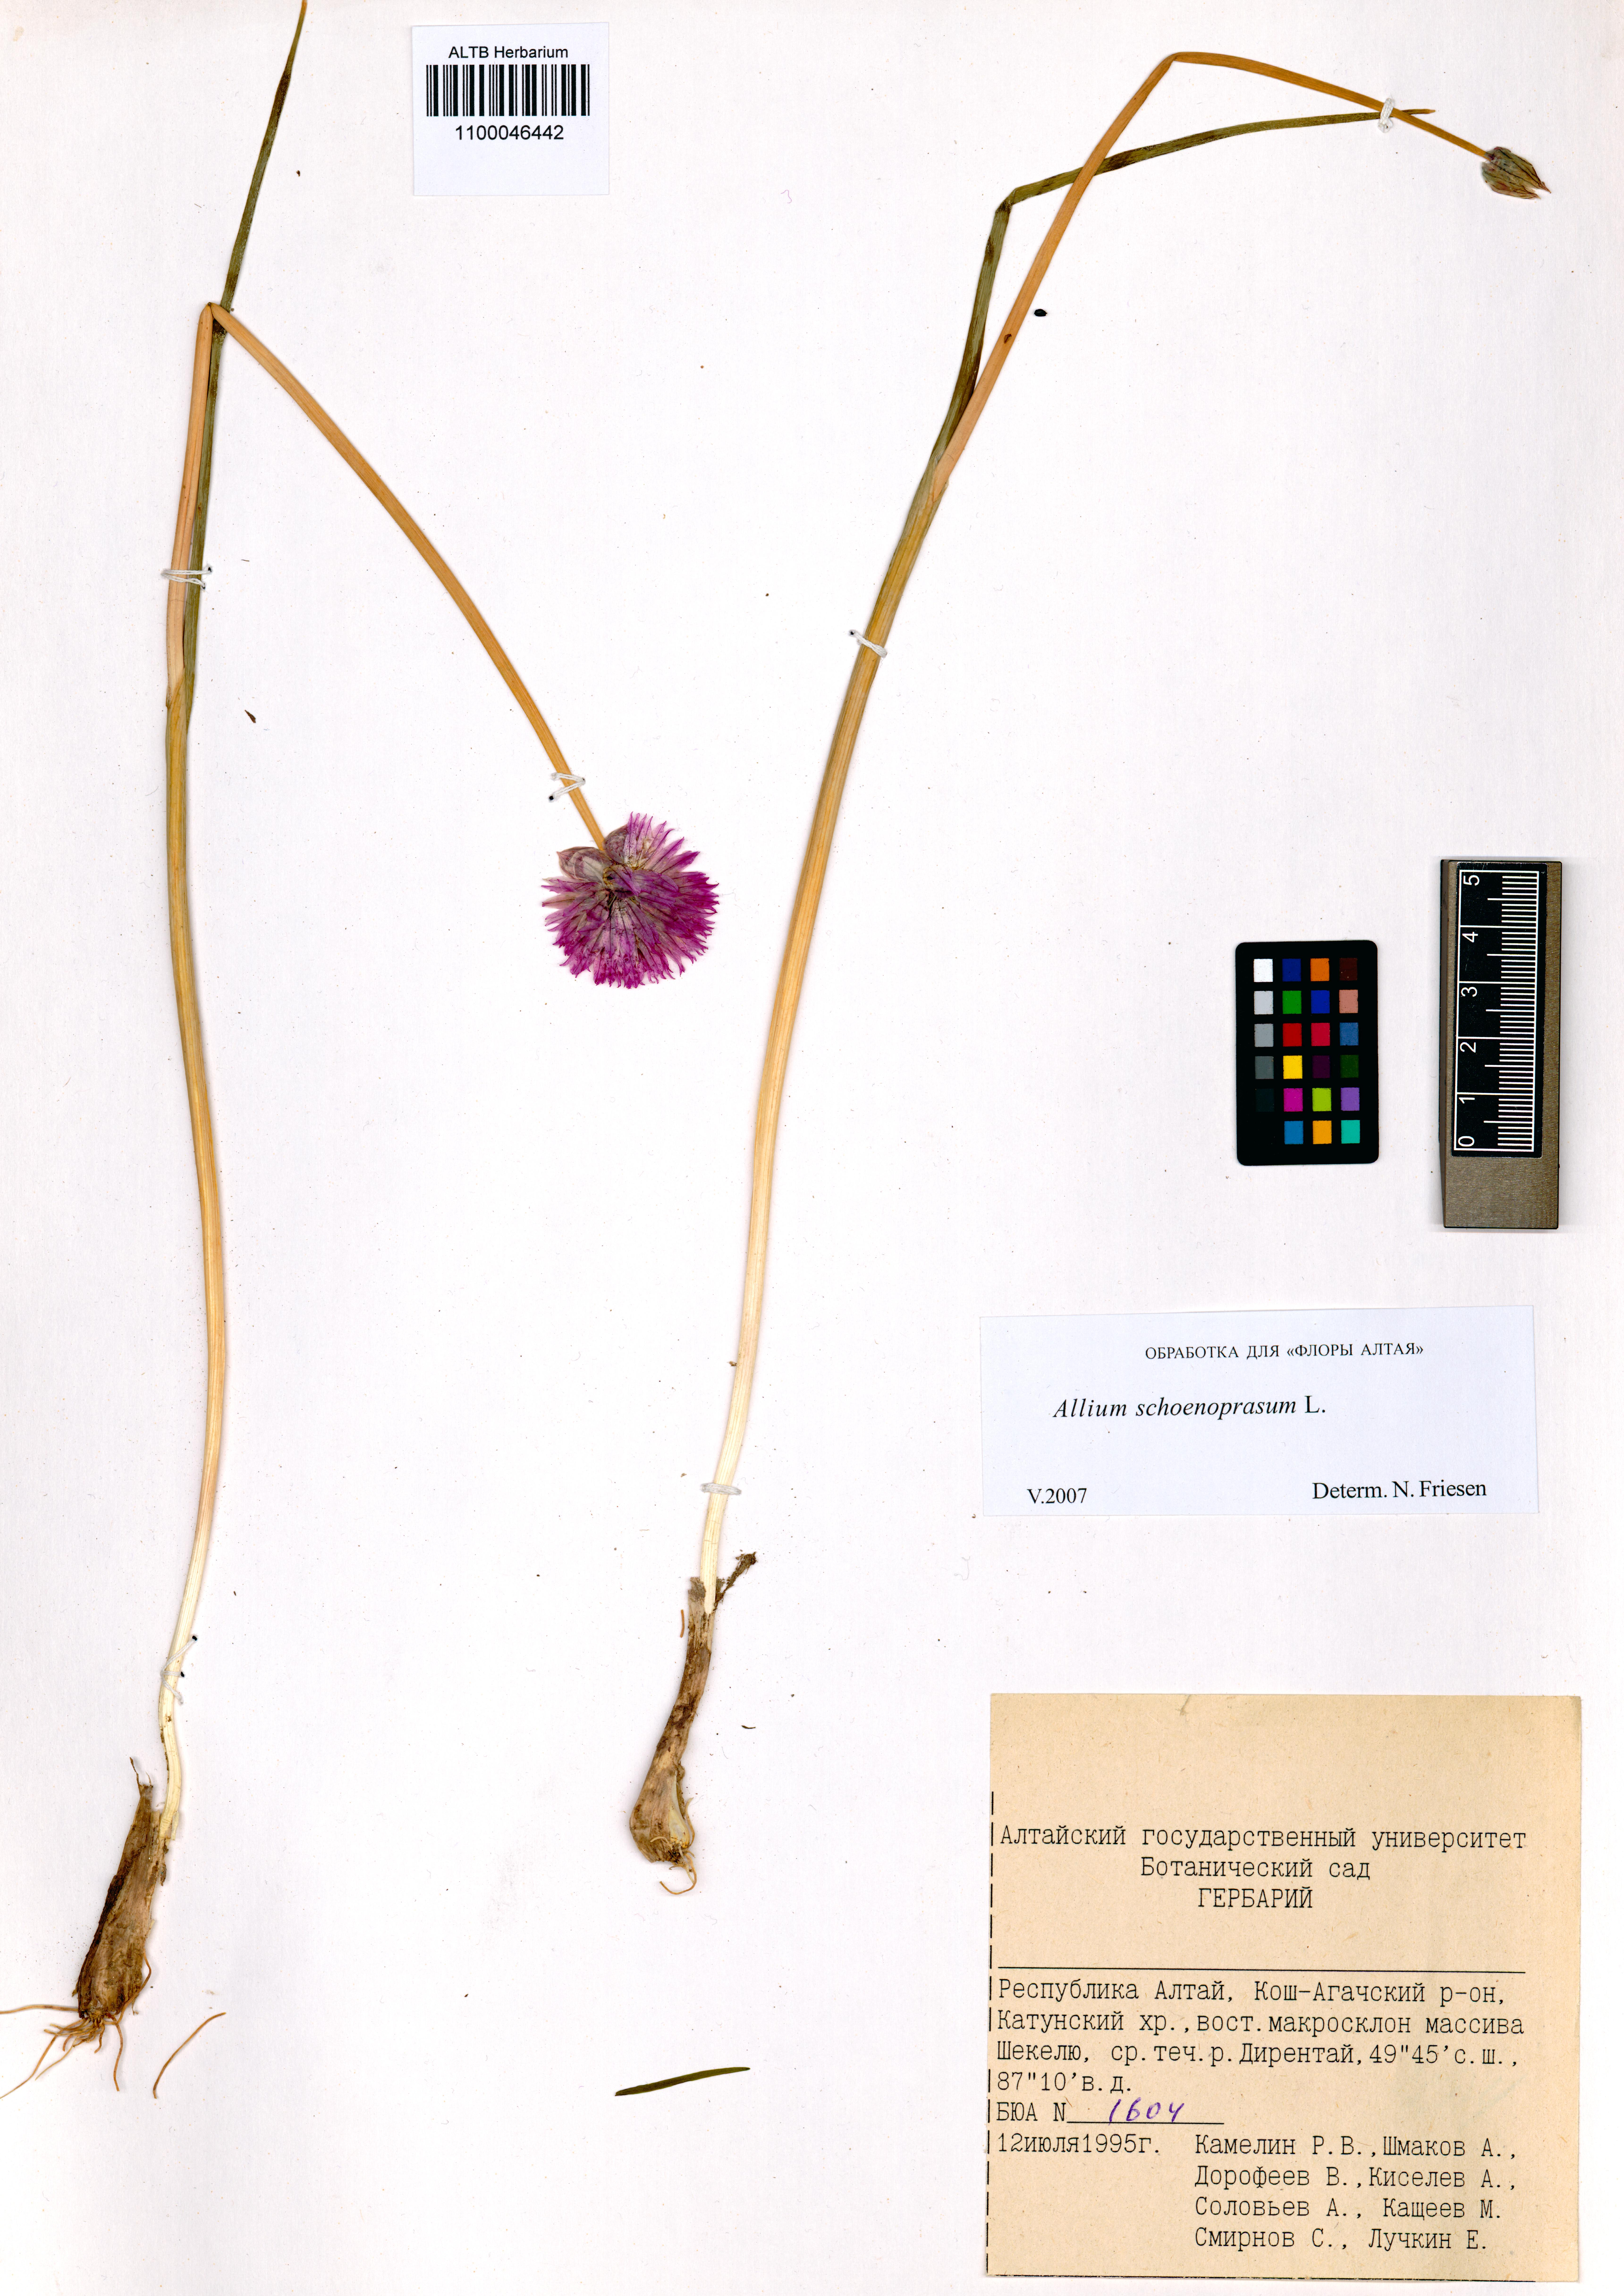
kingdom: Plantae
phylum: Tracheophyta
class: Liliopsida
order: Asparagales
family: Amaryllidaceae
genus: Allium
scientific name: Allium schoenoprasum
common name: Chives
